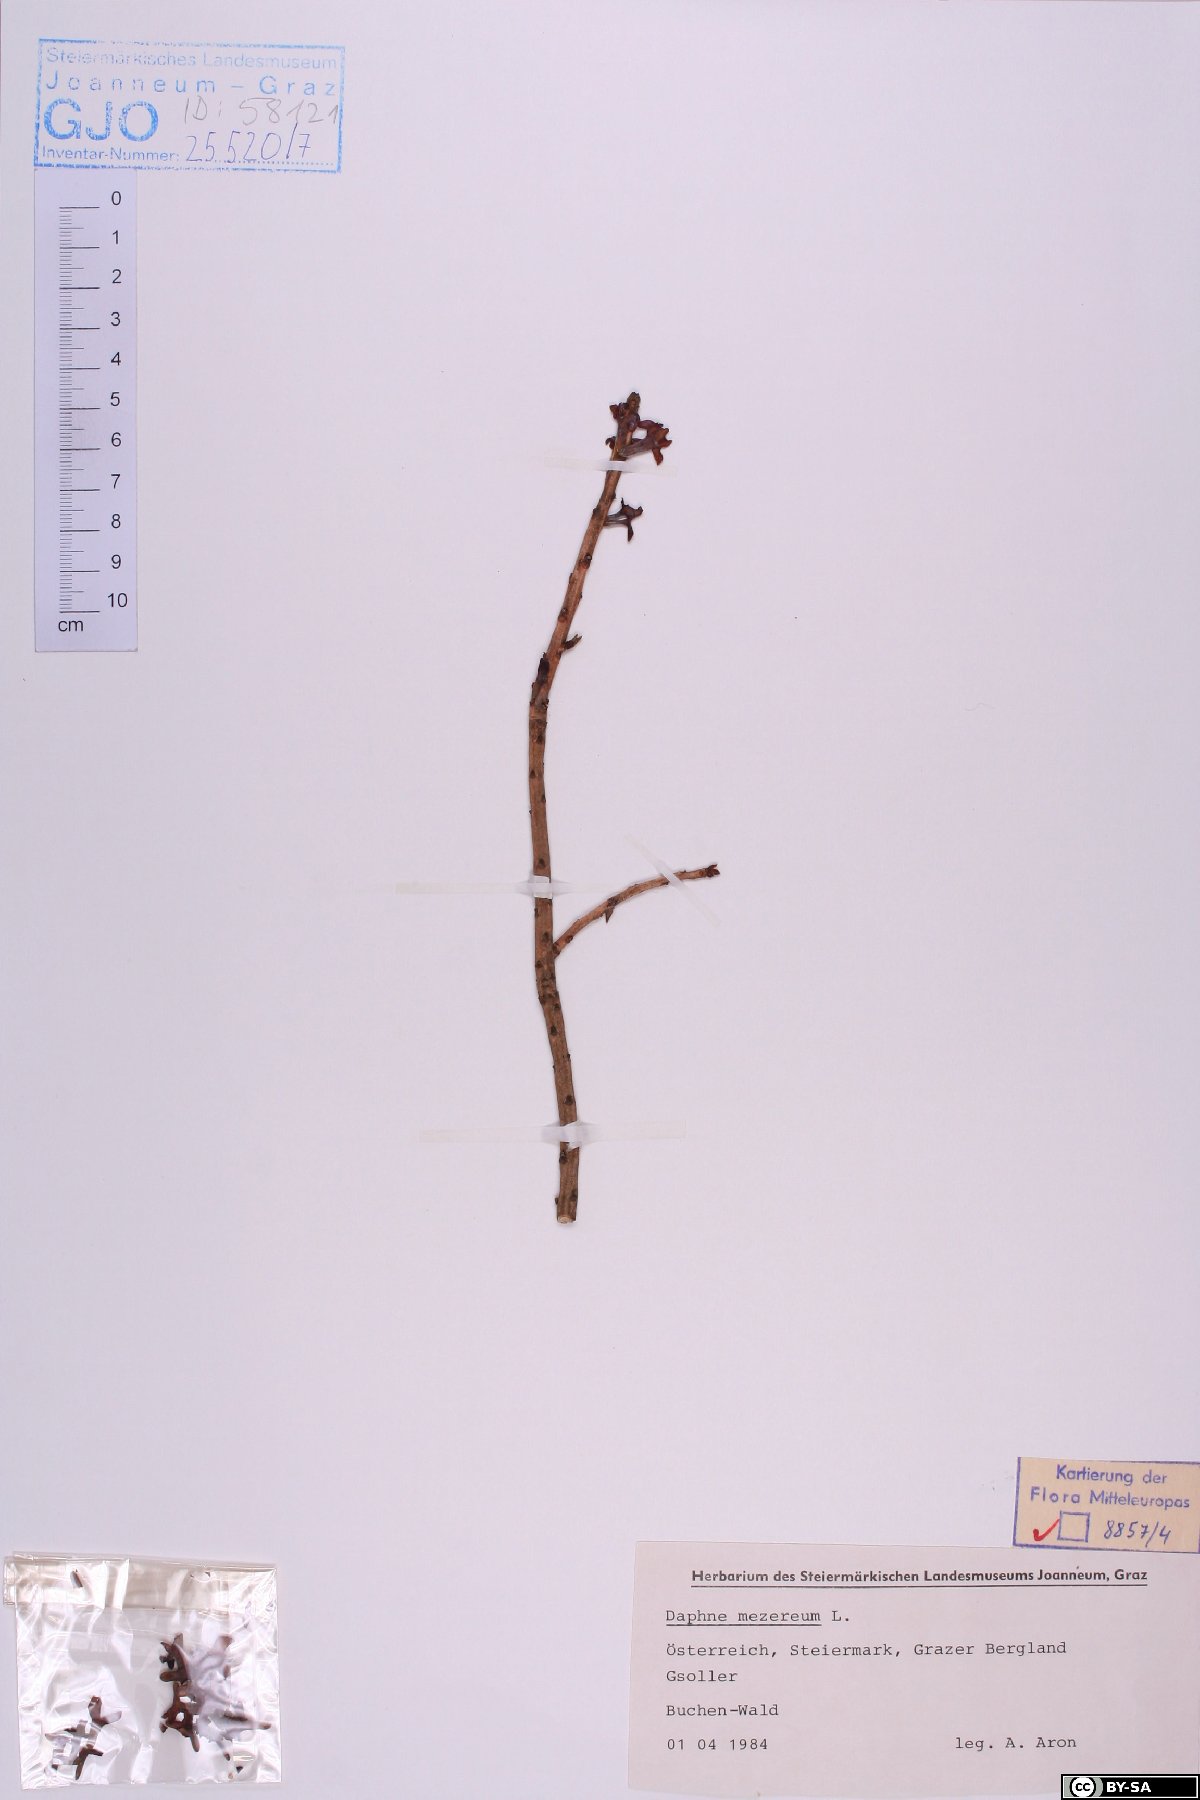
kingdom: Plantae
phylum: Tracheophyta
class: Magnoliopsida
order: Malvales
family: Thymelaeaceae
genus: Daphne
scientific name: Daphne mezereum
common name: Mezereon
